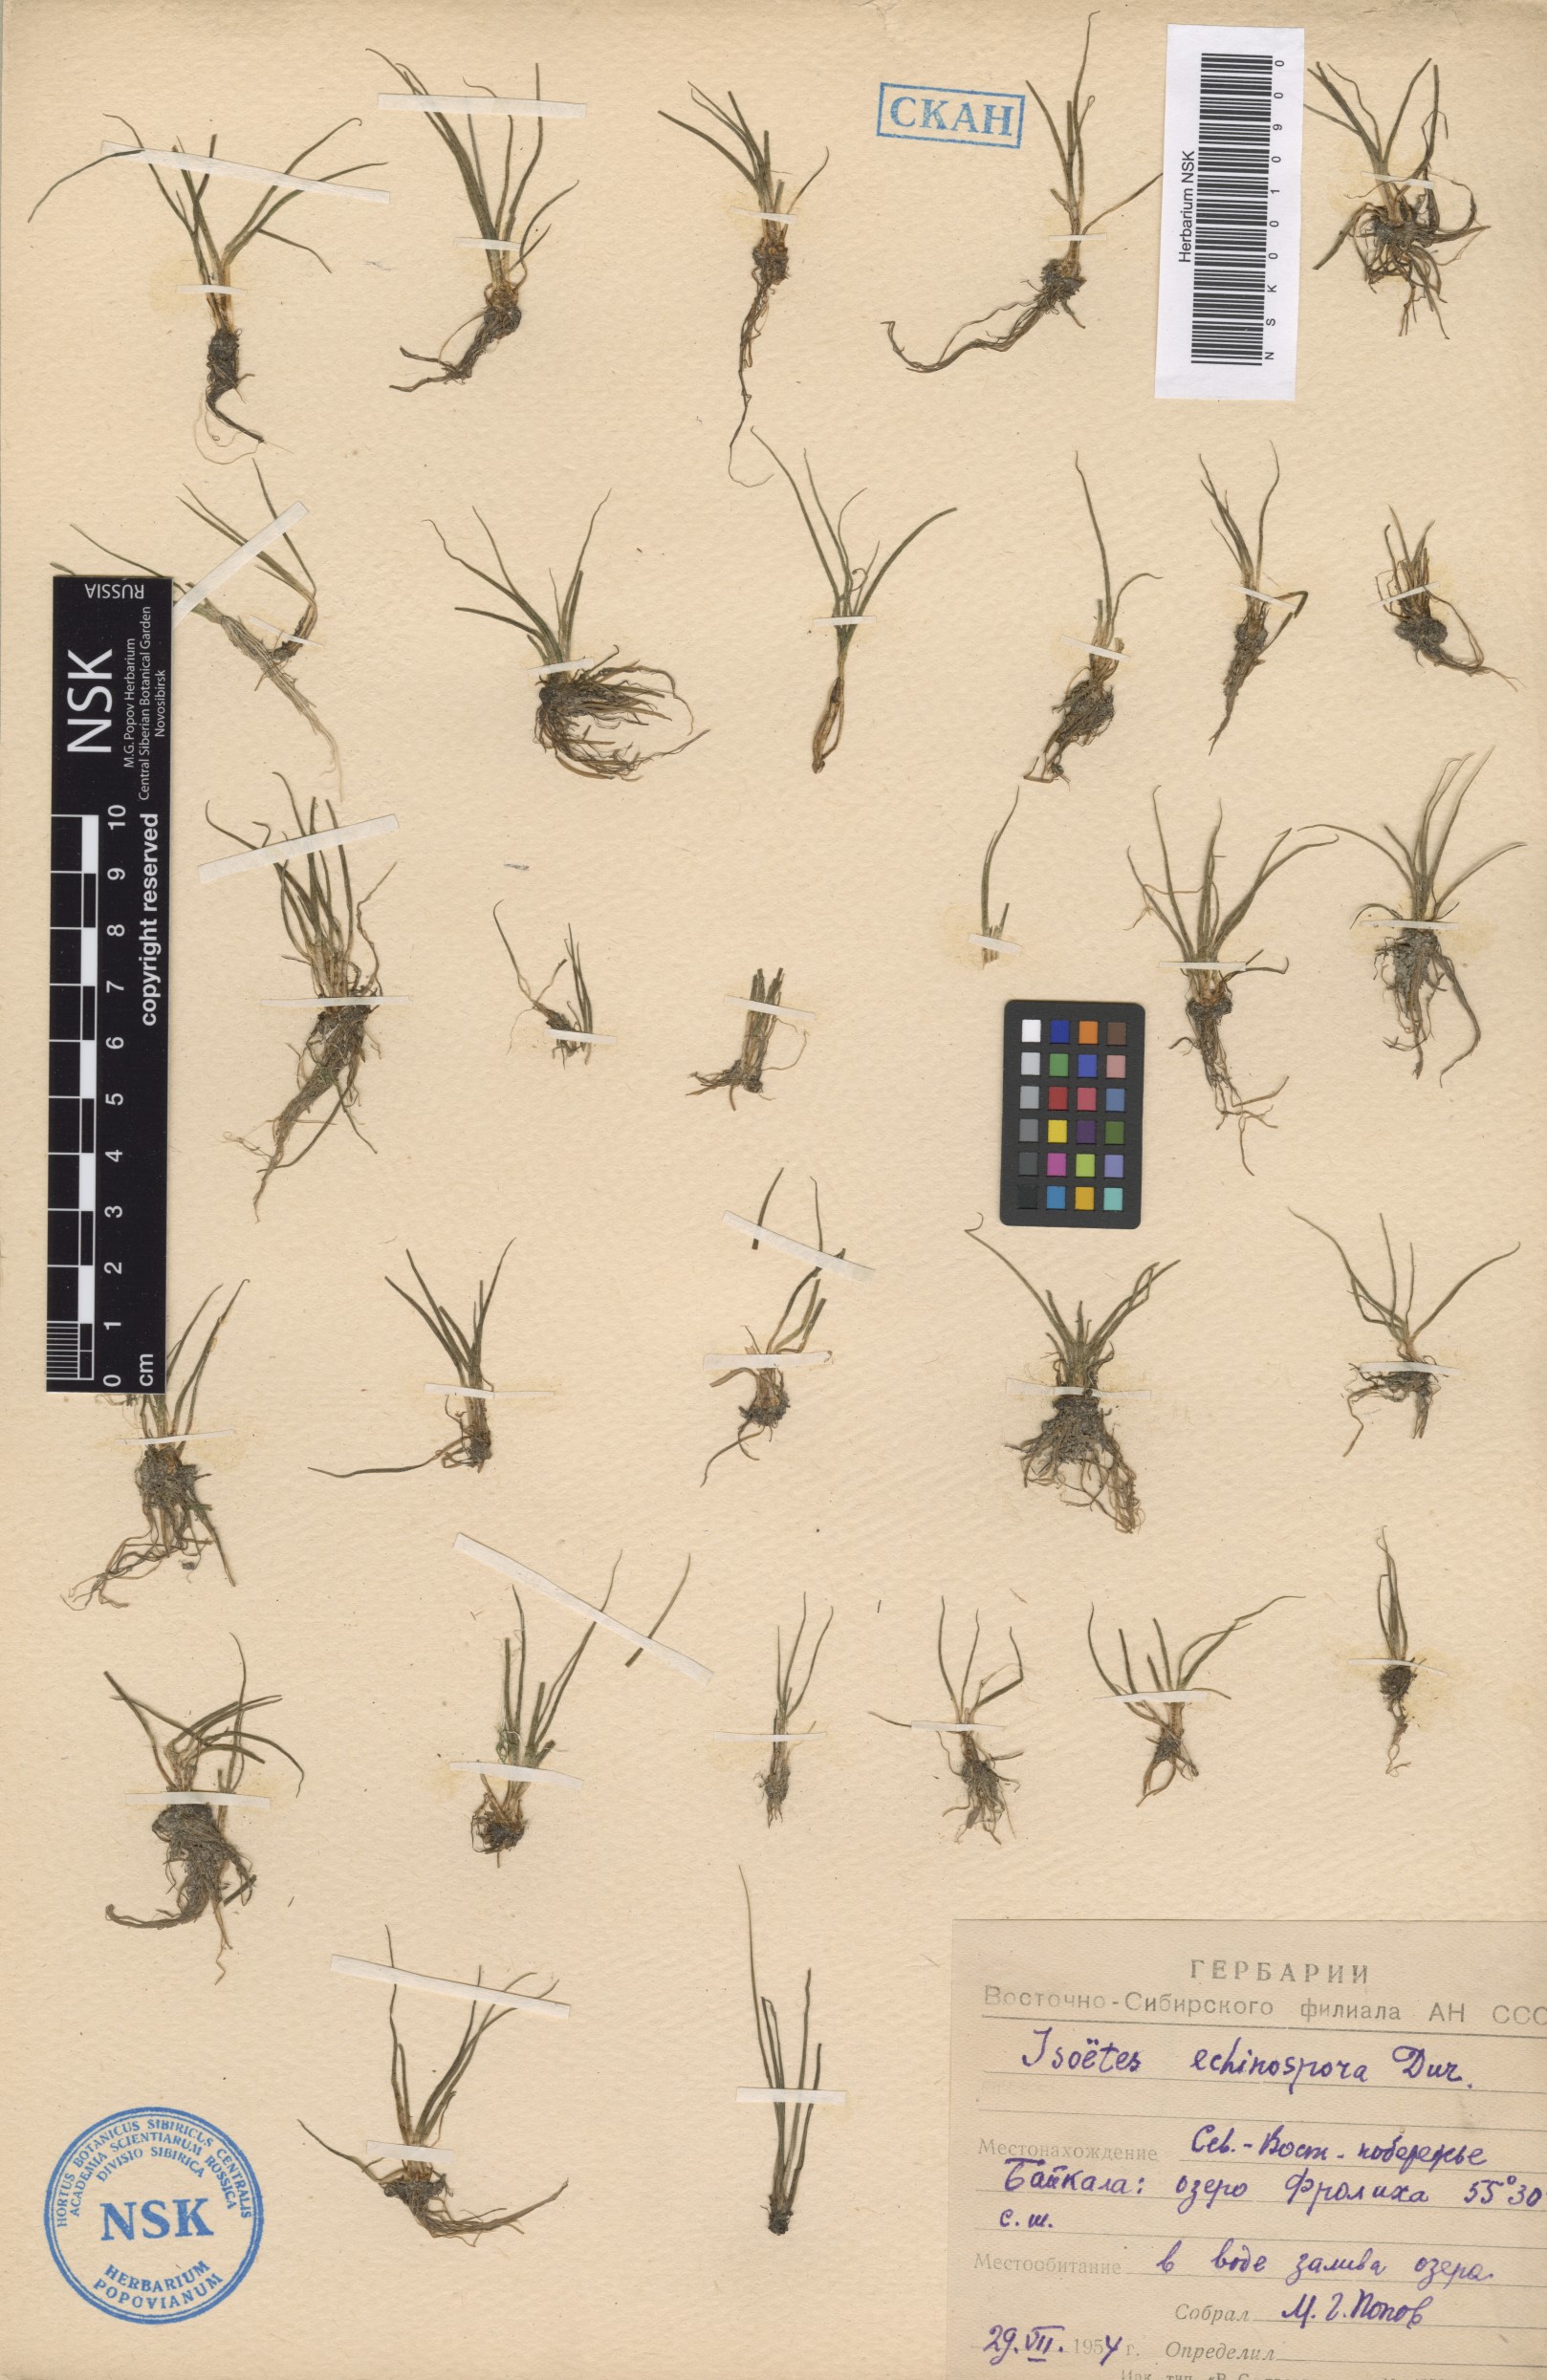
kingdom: Plantae
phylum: Tracheophyta
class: Lycopodiopsida
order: Isoetales
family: Isoetaceae
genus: Isoetes
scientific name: Isoetes echinospora
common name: Spring quillwort
